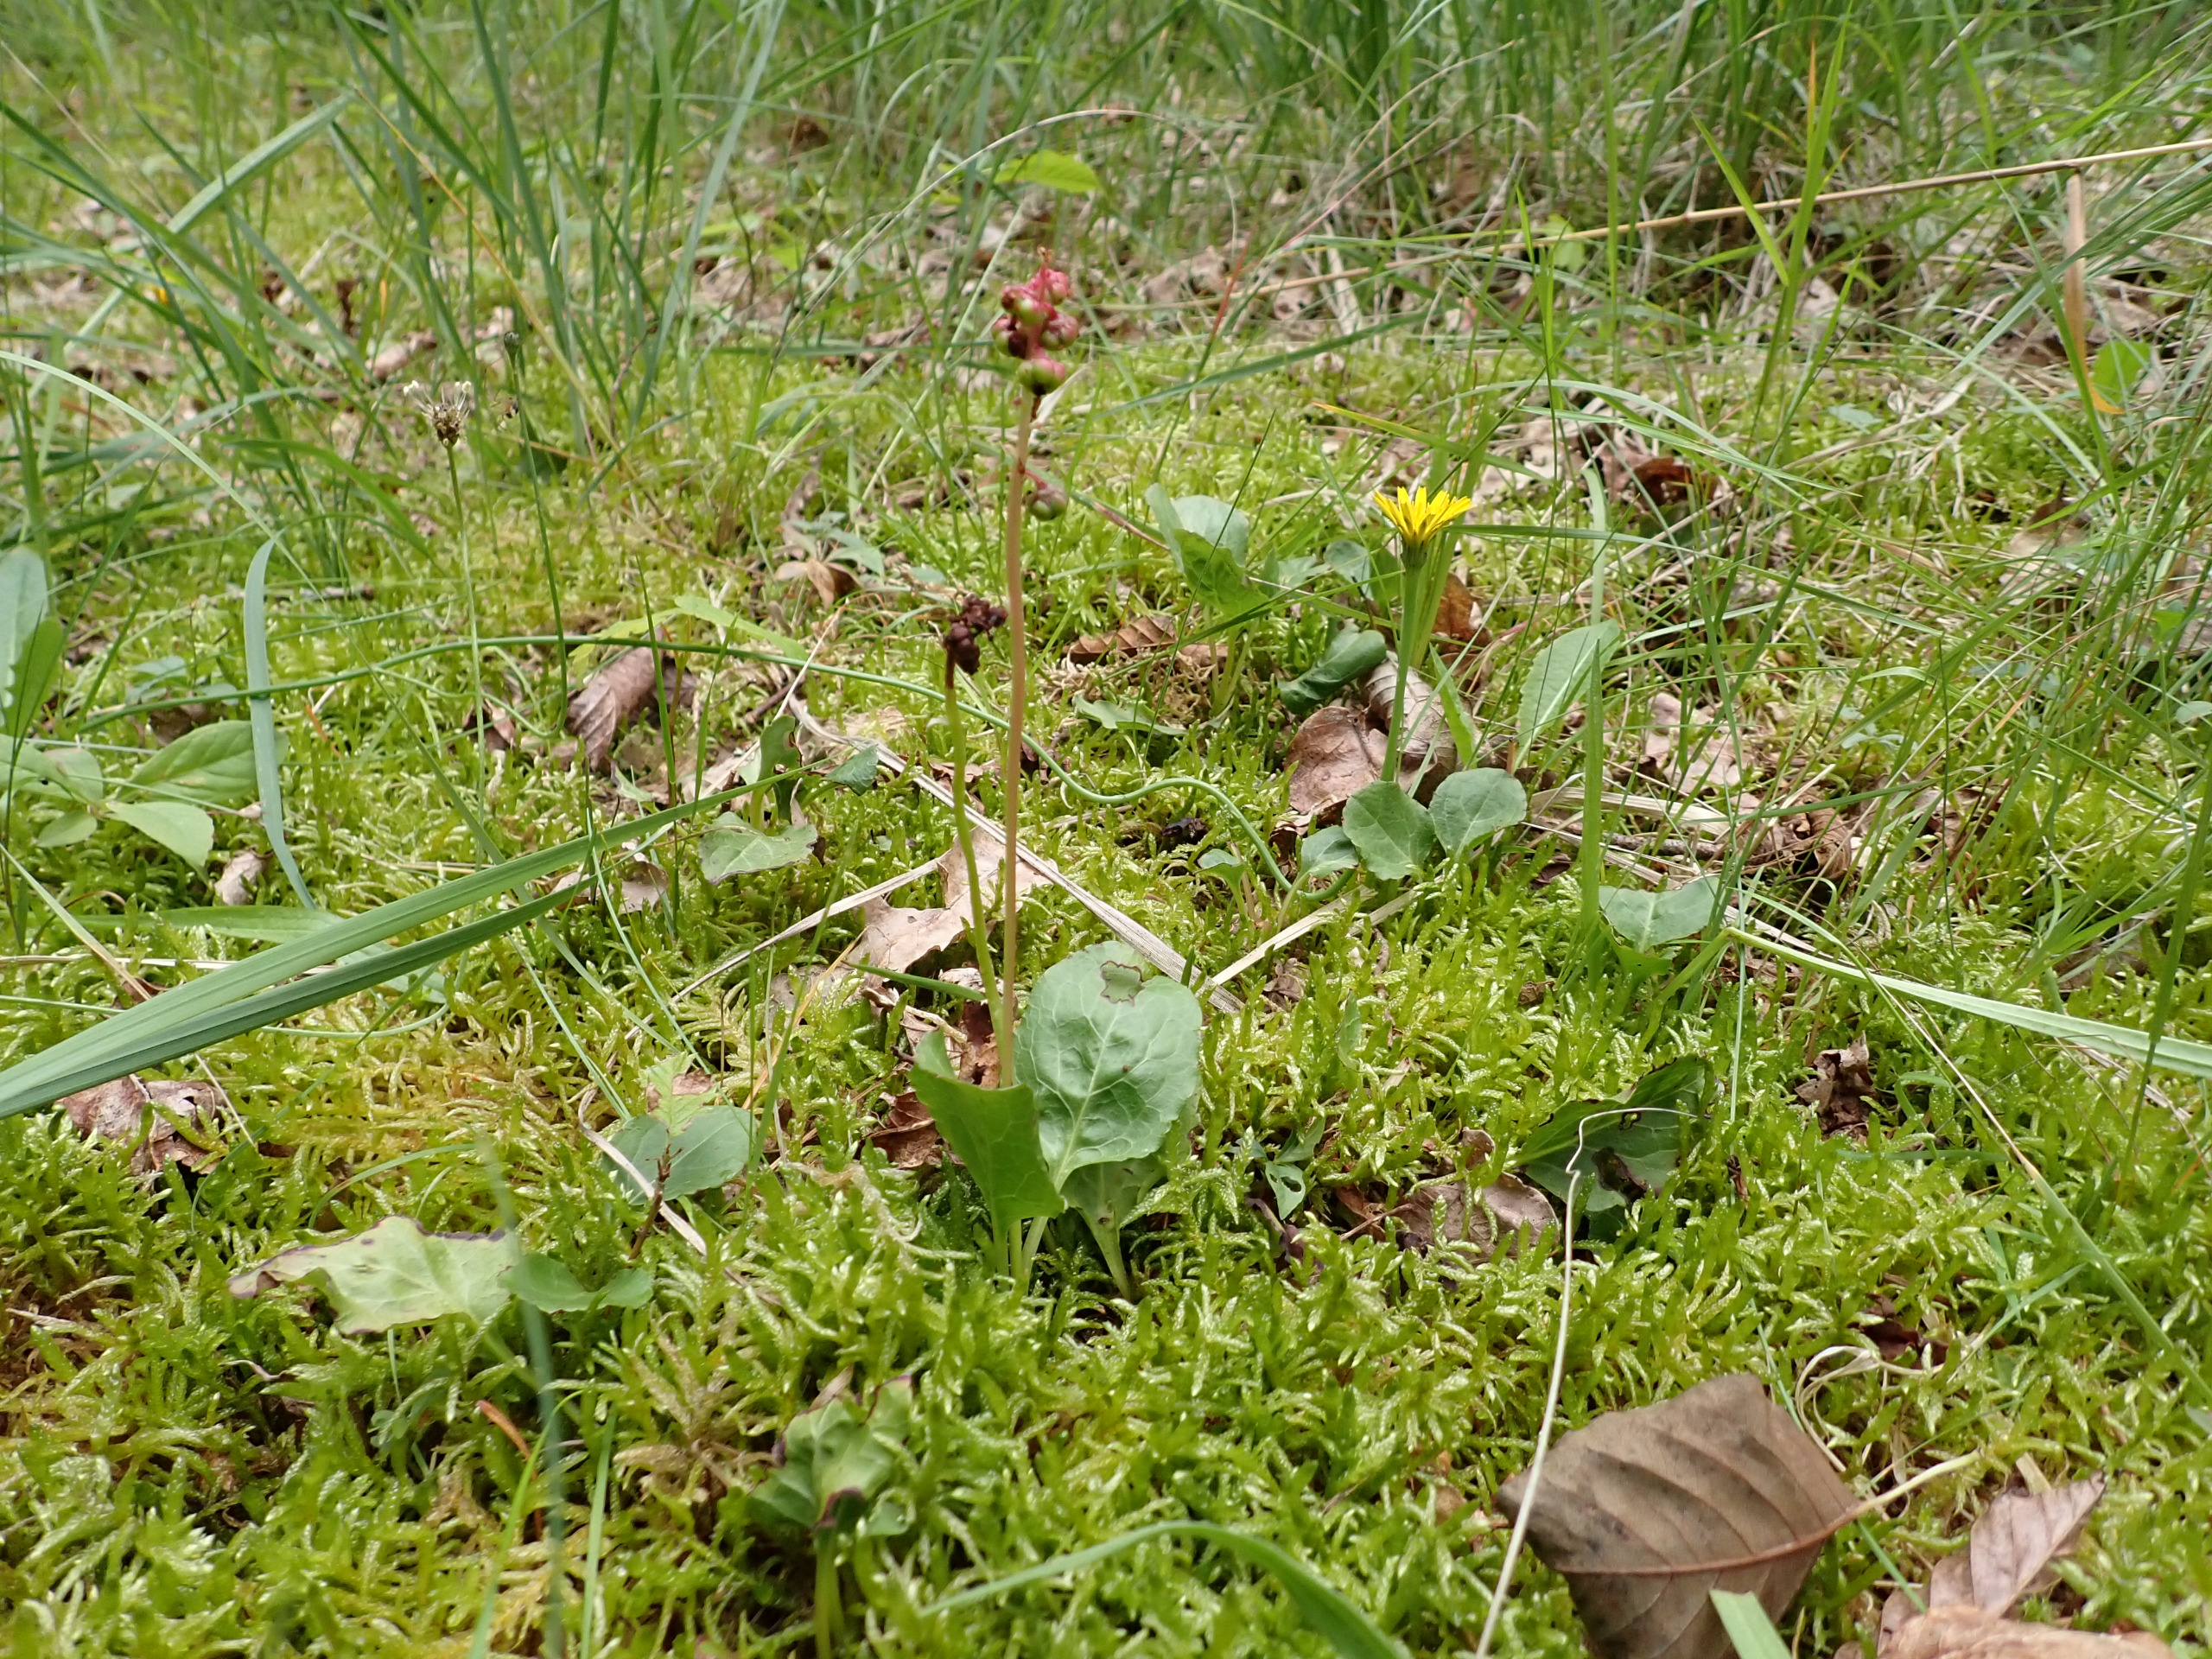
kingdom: Plantae
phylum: Tracheophyta
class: Magnoliopsida
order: Ericales
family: Ericaceae
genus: Pyrola
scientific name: Pyrola minor
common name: Liden vintergrøn
